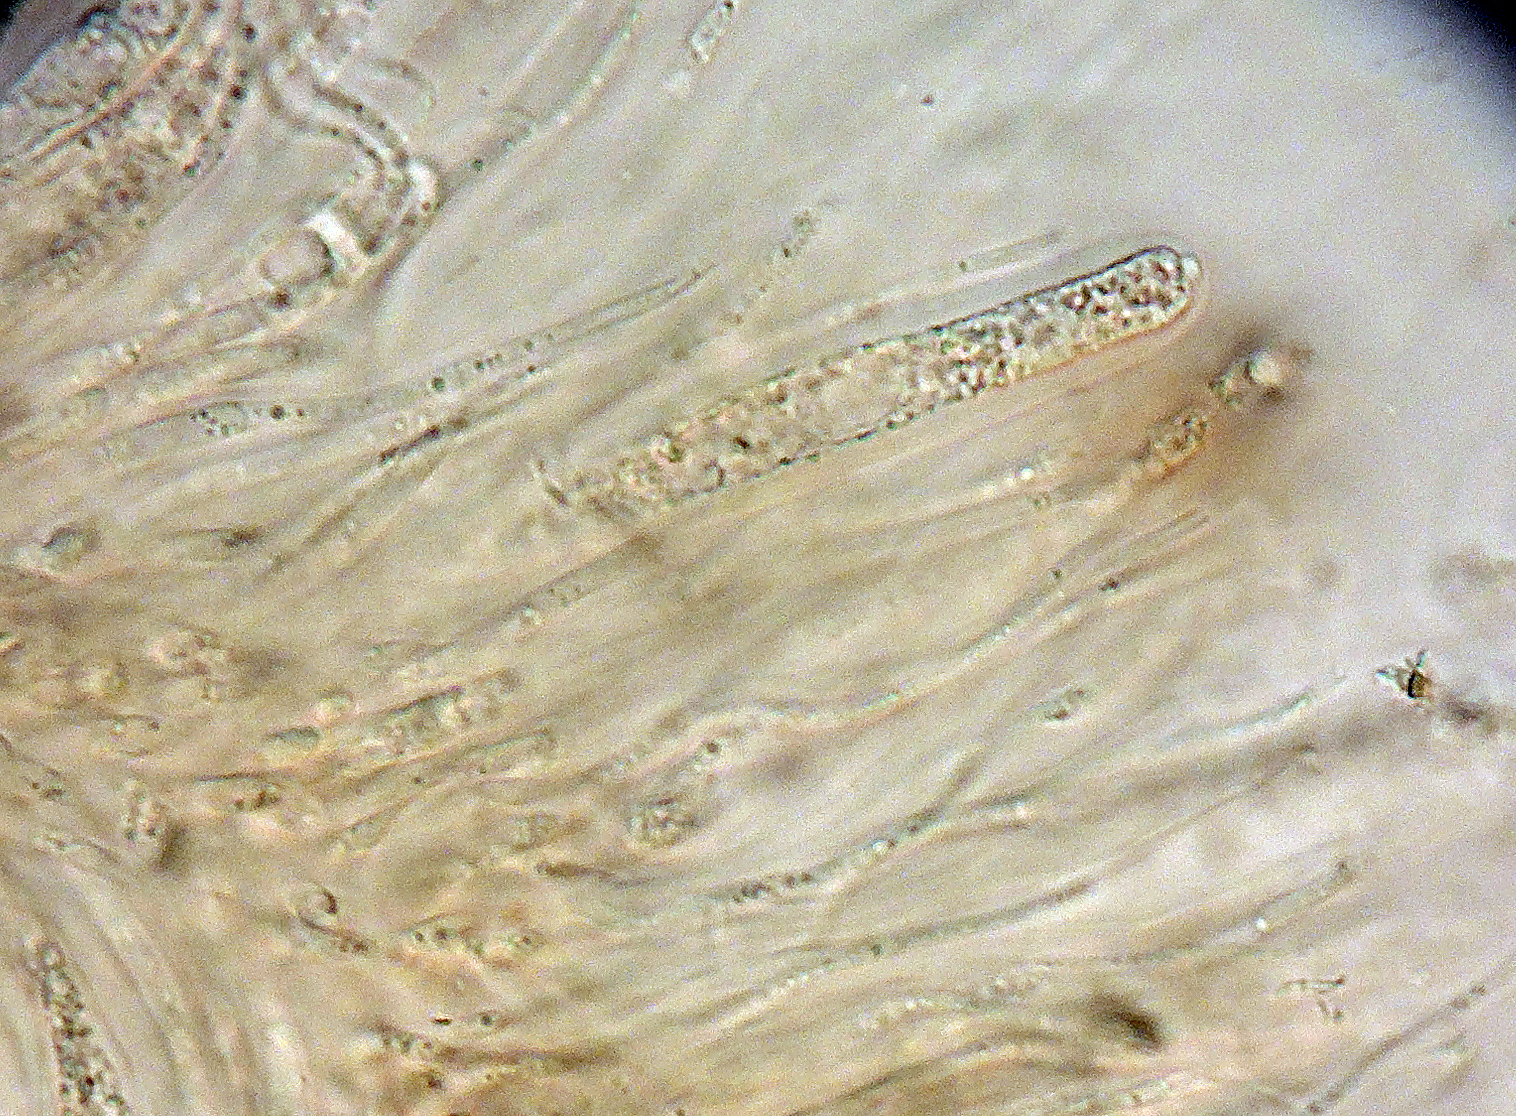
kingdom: Fungi
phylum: Ascomycota
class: Dothideomycetes
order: Pleosporales
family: Lophiostomataceae
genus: Lophiostoma
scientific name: Lophiostoma quadrinucleatum
